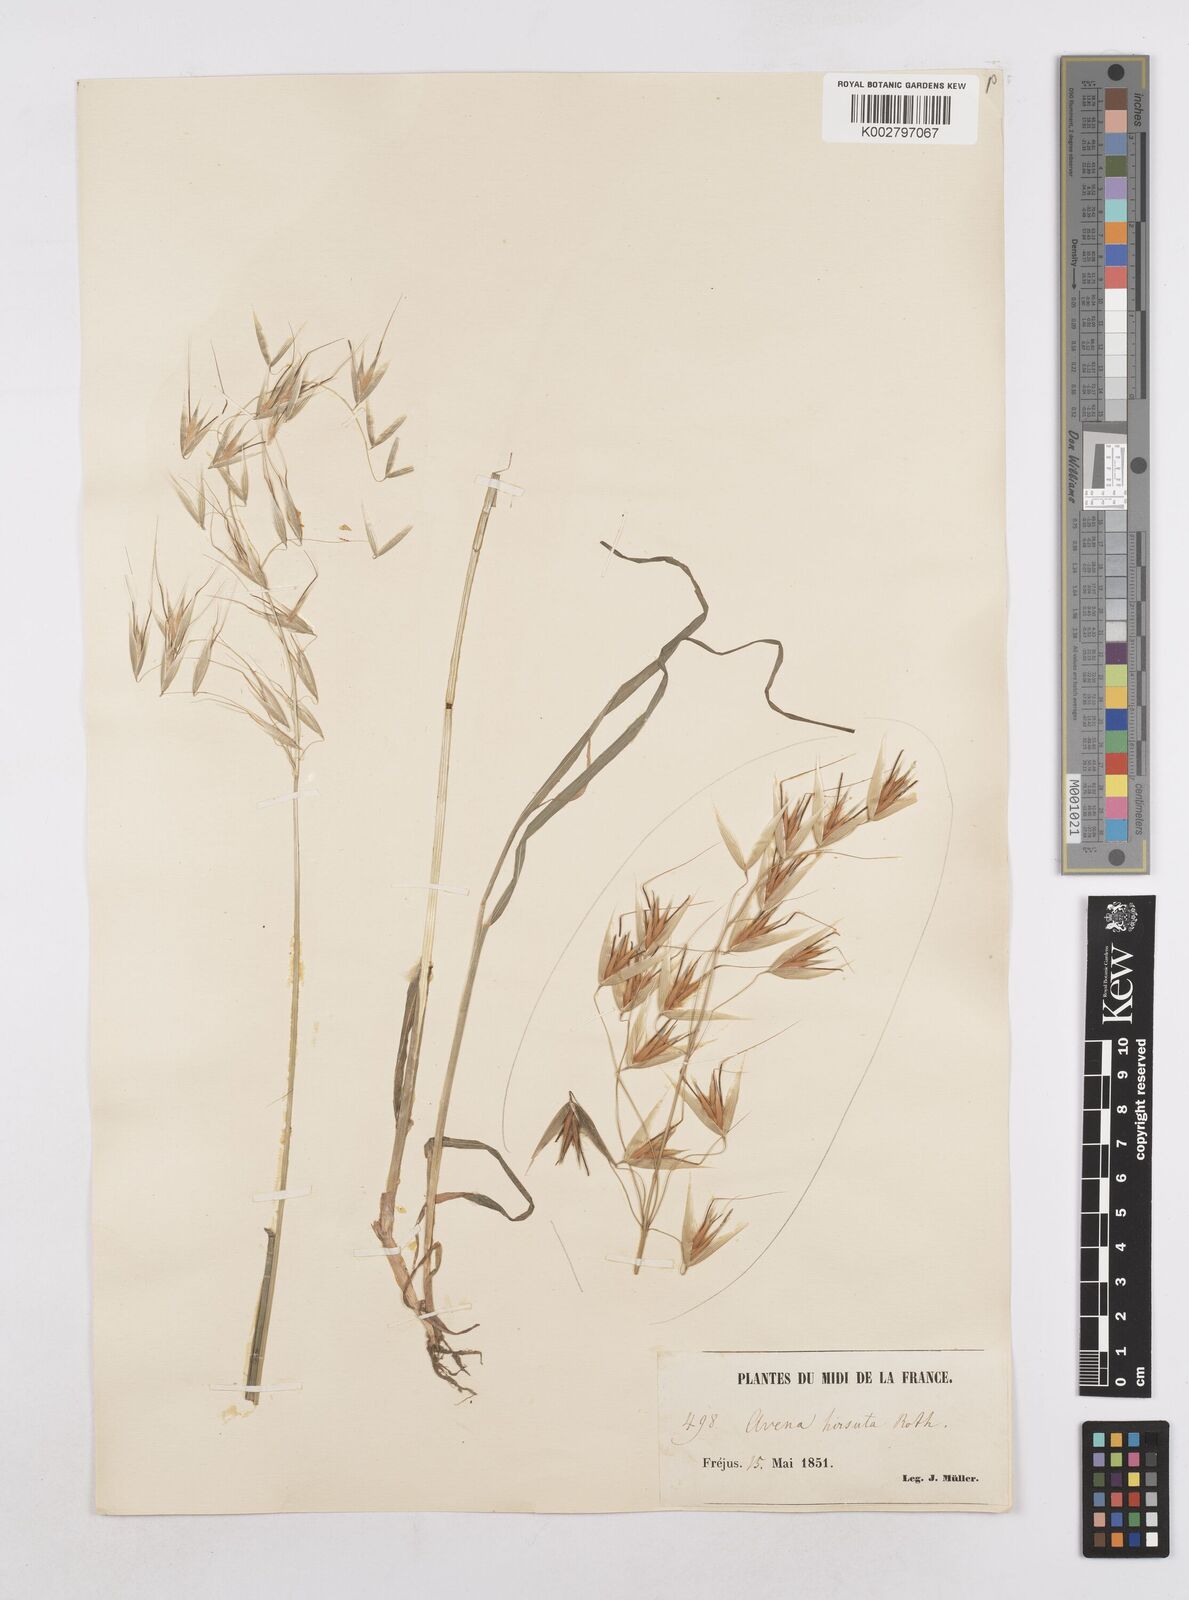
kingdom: Plantae
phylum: Tracheophyta
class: Liliopsida
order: Poales
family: Poaceae
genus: Avena
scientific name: Avena
